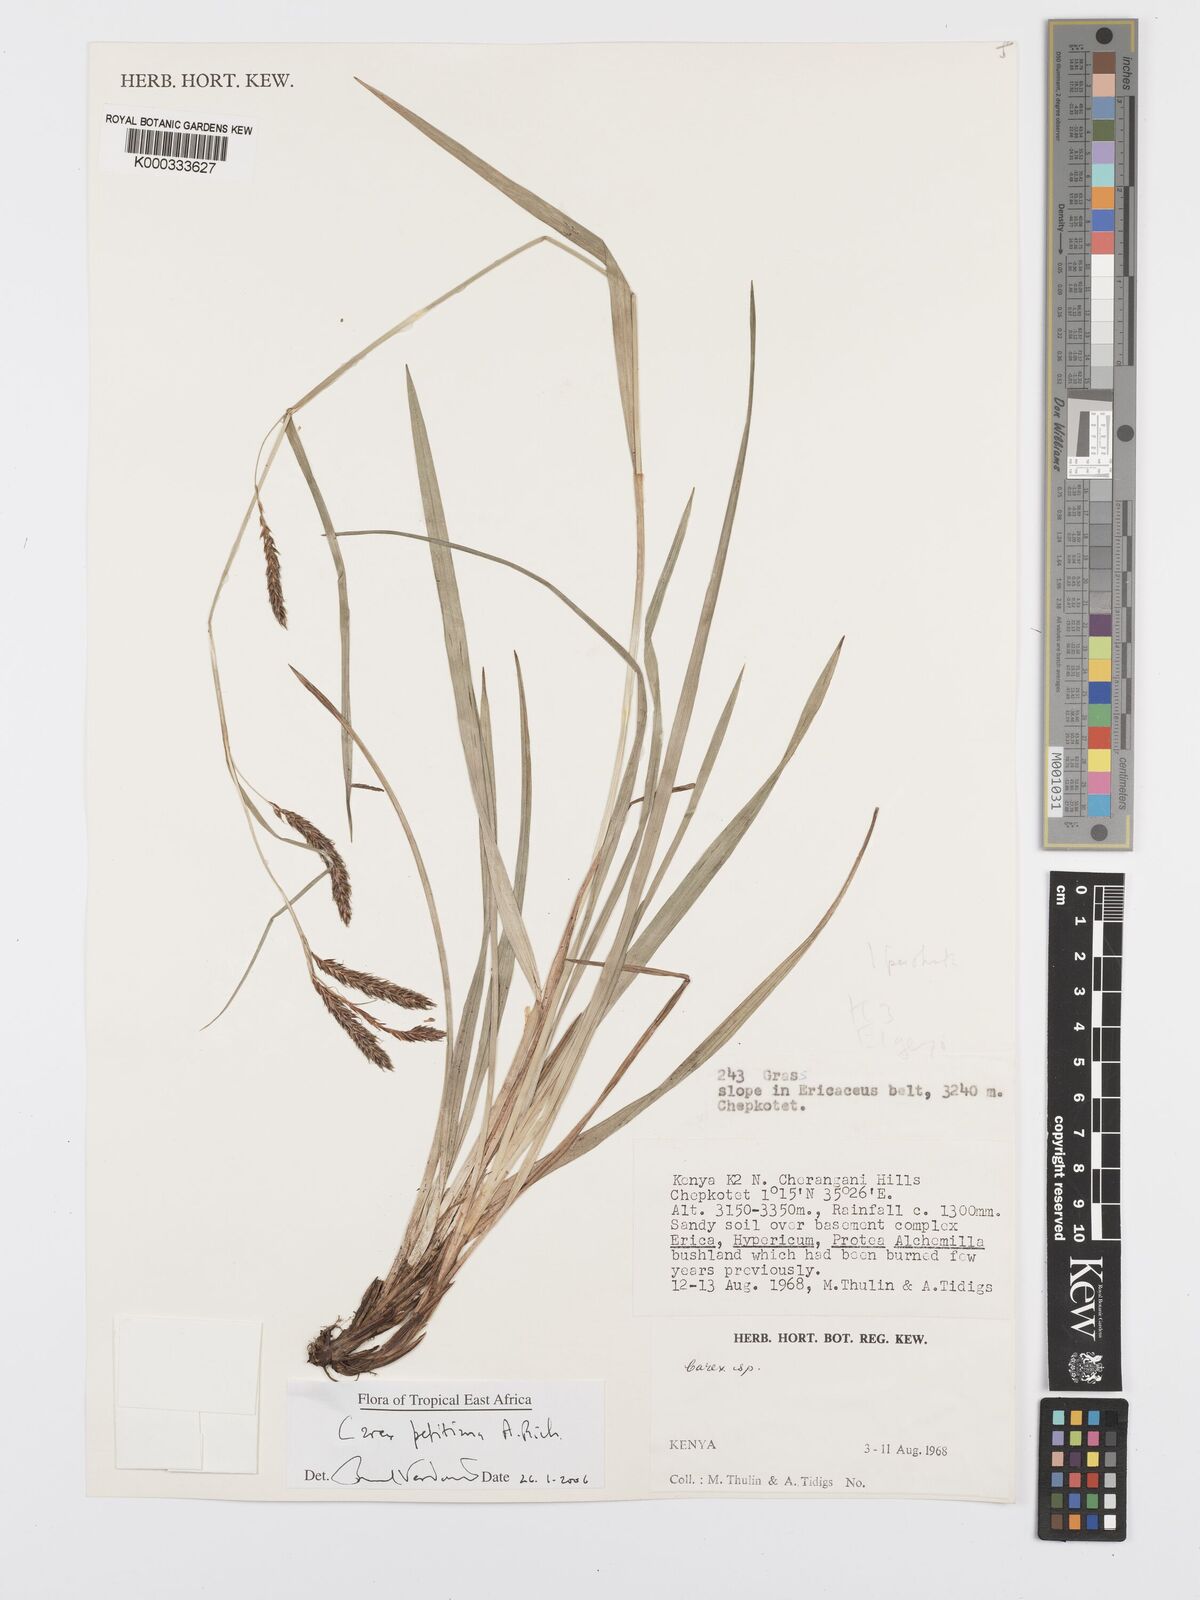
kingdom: Plantae
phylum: Tracheophyta
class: Liliopsida
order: Poales
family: Cyperaceae
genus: Carex
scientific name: Carex petitiana
